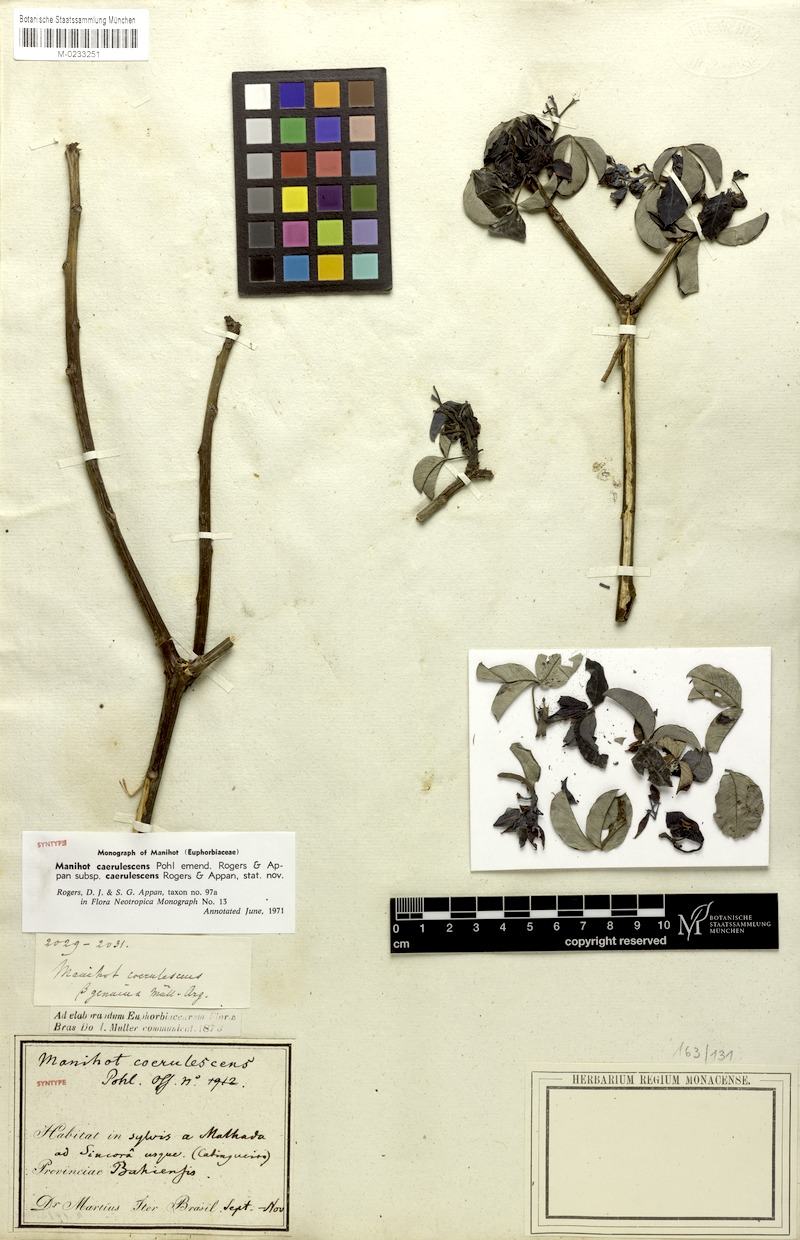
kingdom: Plantae
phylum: Tracheophyta
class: Magnoliopsida
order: Malpighiales
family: Euphorbiaceae
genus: Manihot
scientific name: Manihot caerulescens
